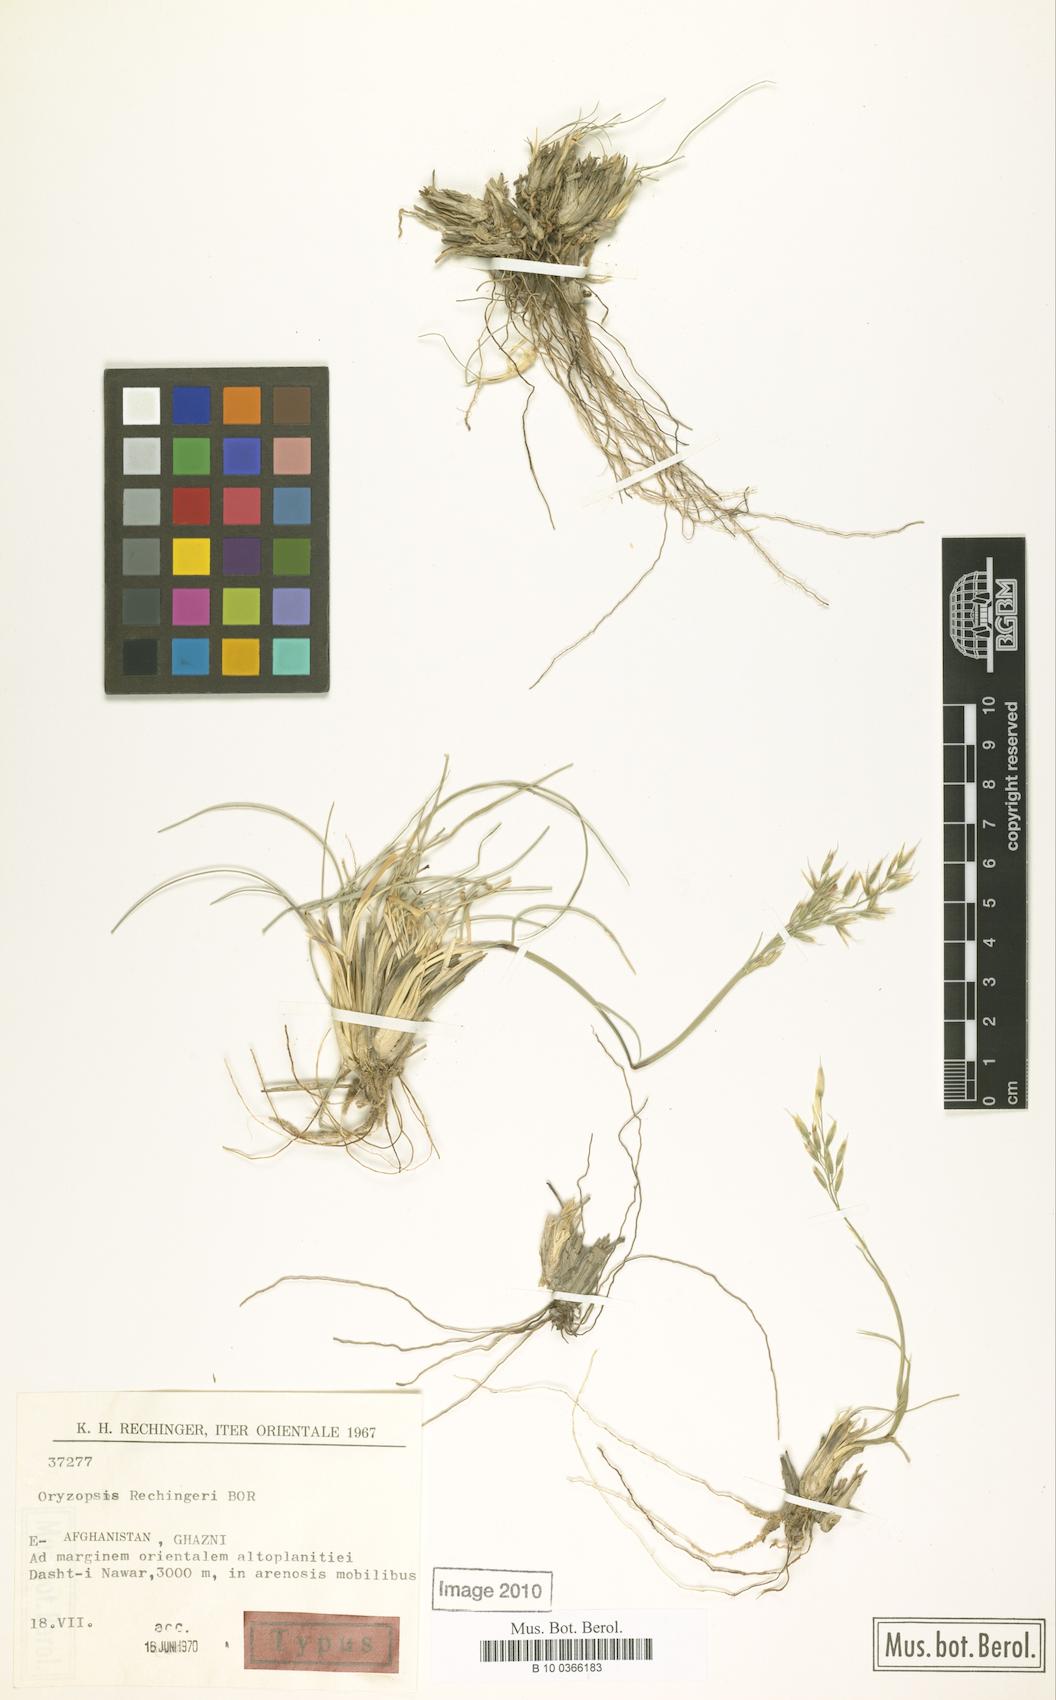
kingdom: Plantae
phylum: Tracheophyta
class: Liliopsida
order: Poales
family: Poaceae
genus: Piptatherum
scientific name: Piptatherum rechingeri
